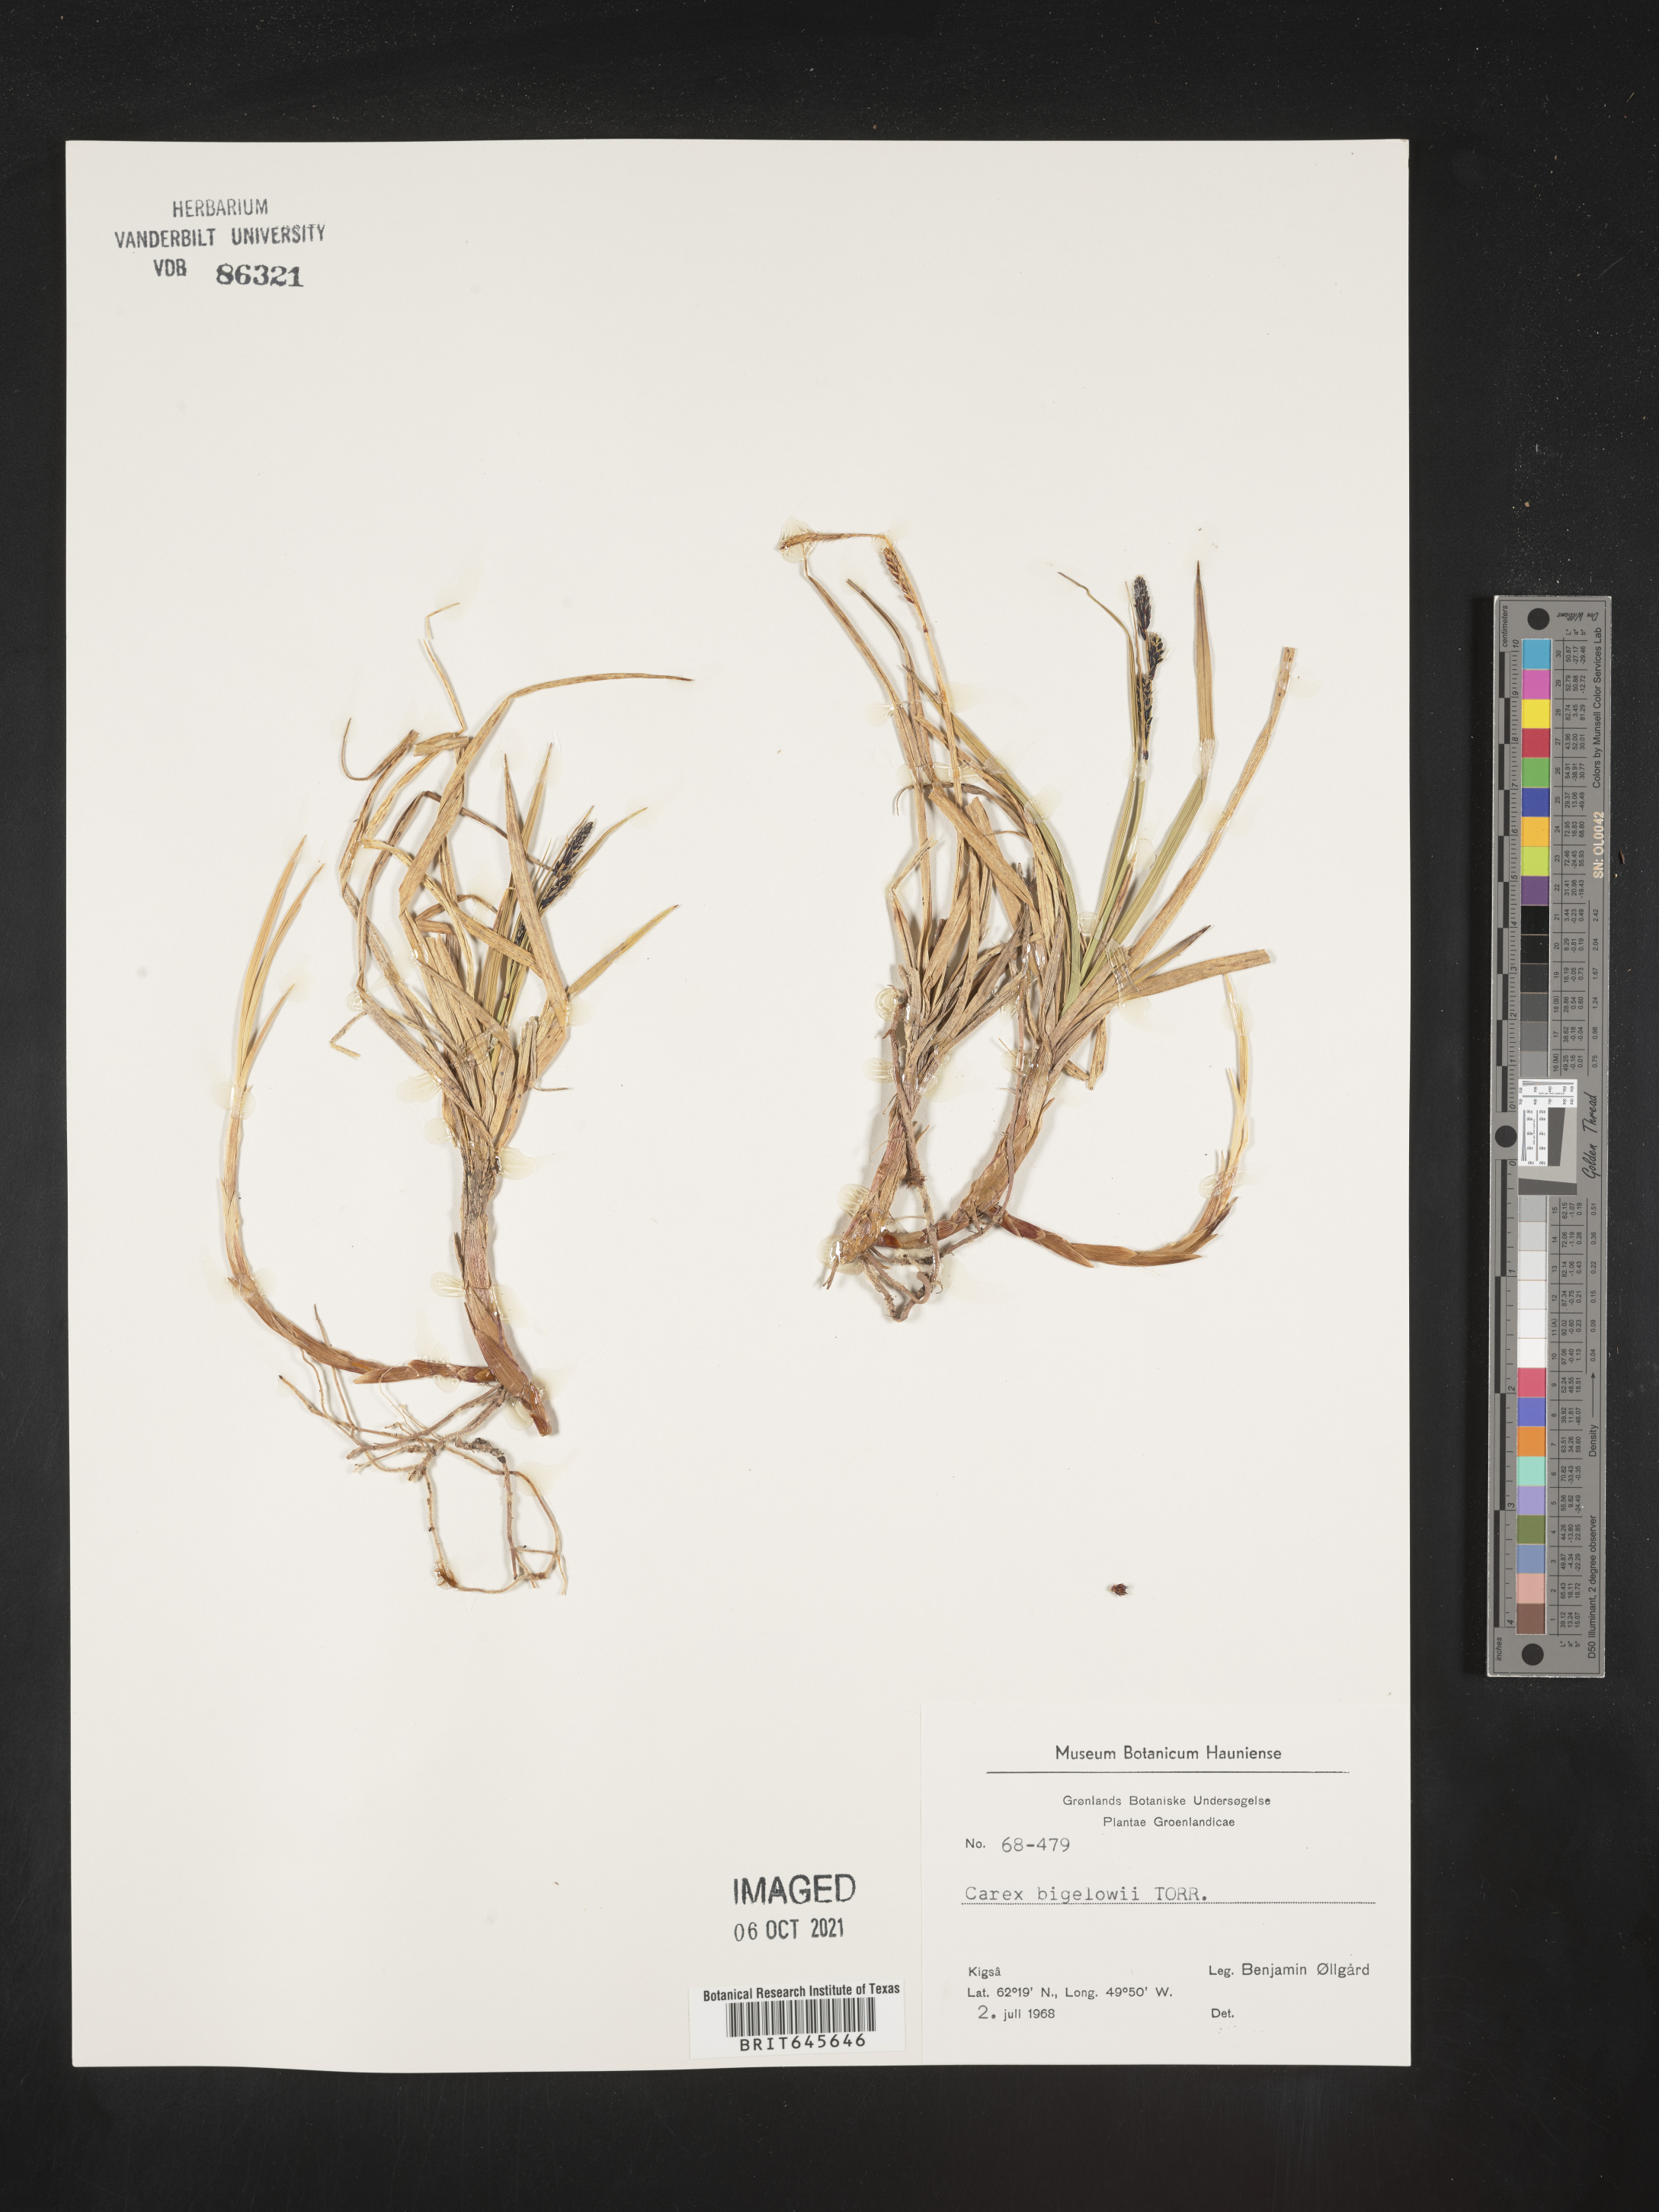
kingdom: Plantae
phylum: Tracheophyta
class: Liliopsida
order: Poales
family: Cyperaceae
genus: Carex
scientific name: Carex bigelowii
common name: Stiff sedge
